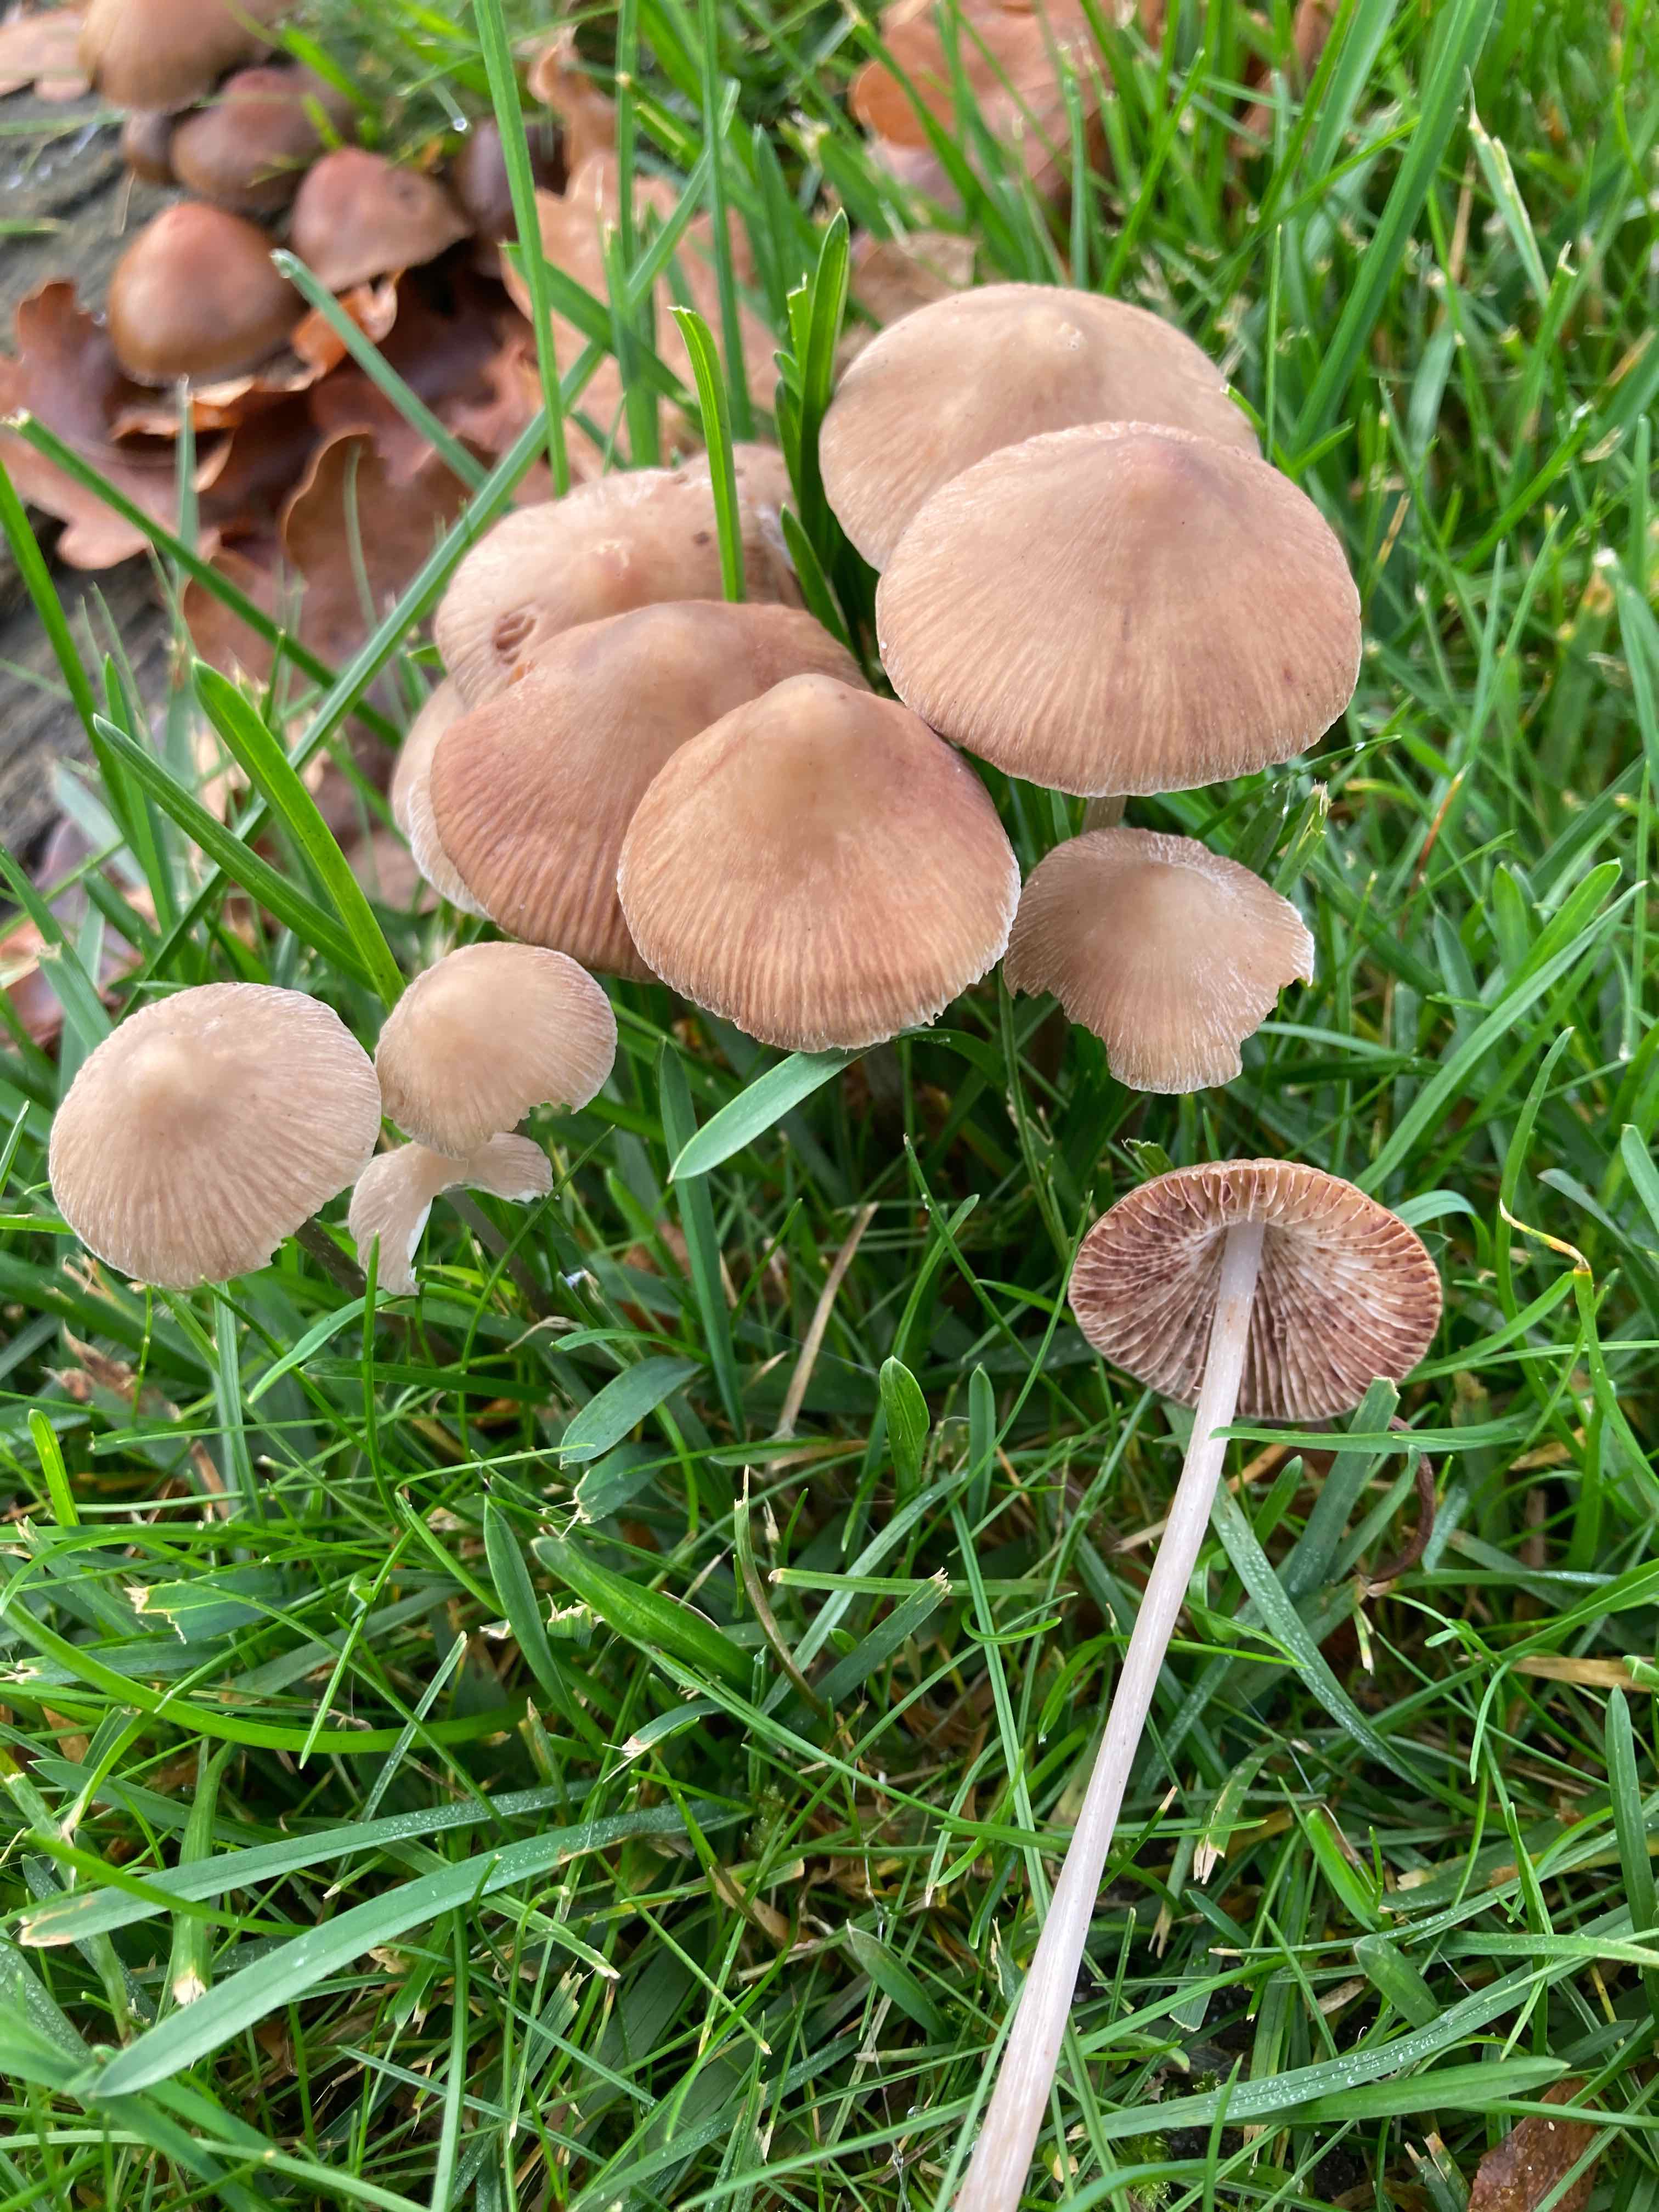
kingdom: Fungi
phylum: Basidiomycota
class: Agaricomycetes
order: Agaricales
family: Mycenaceae
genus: Mycena
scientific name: Mycena polygramma
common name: mangestribet huesvamp
